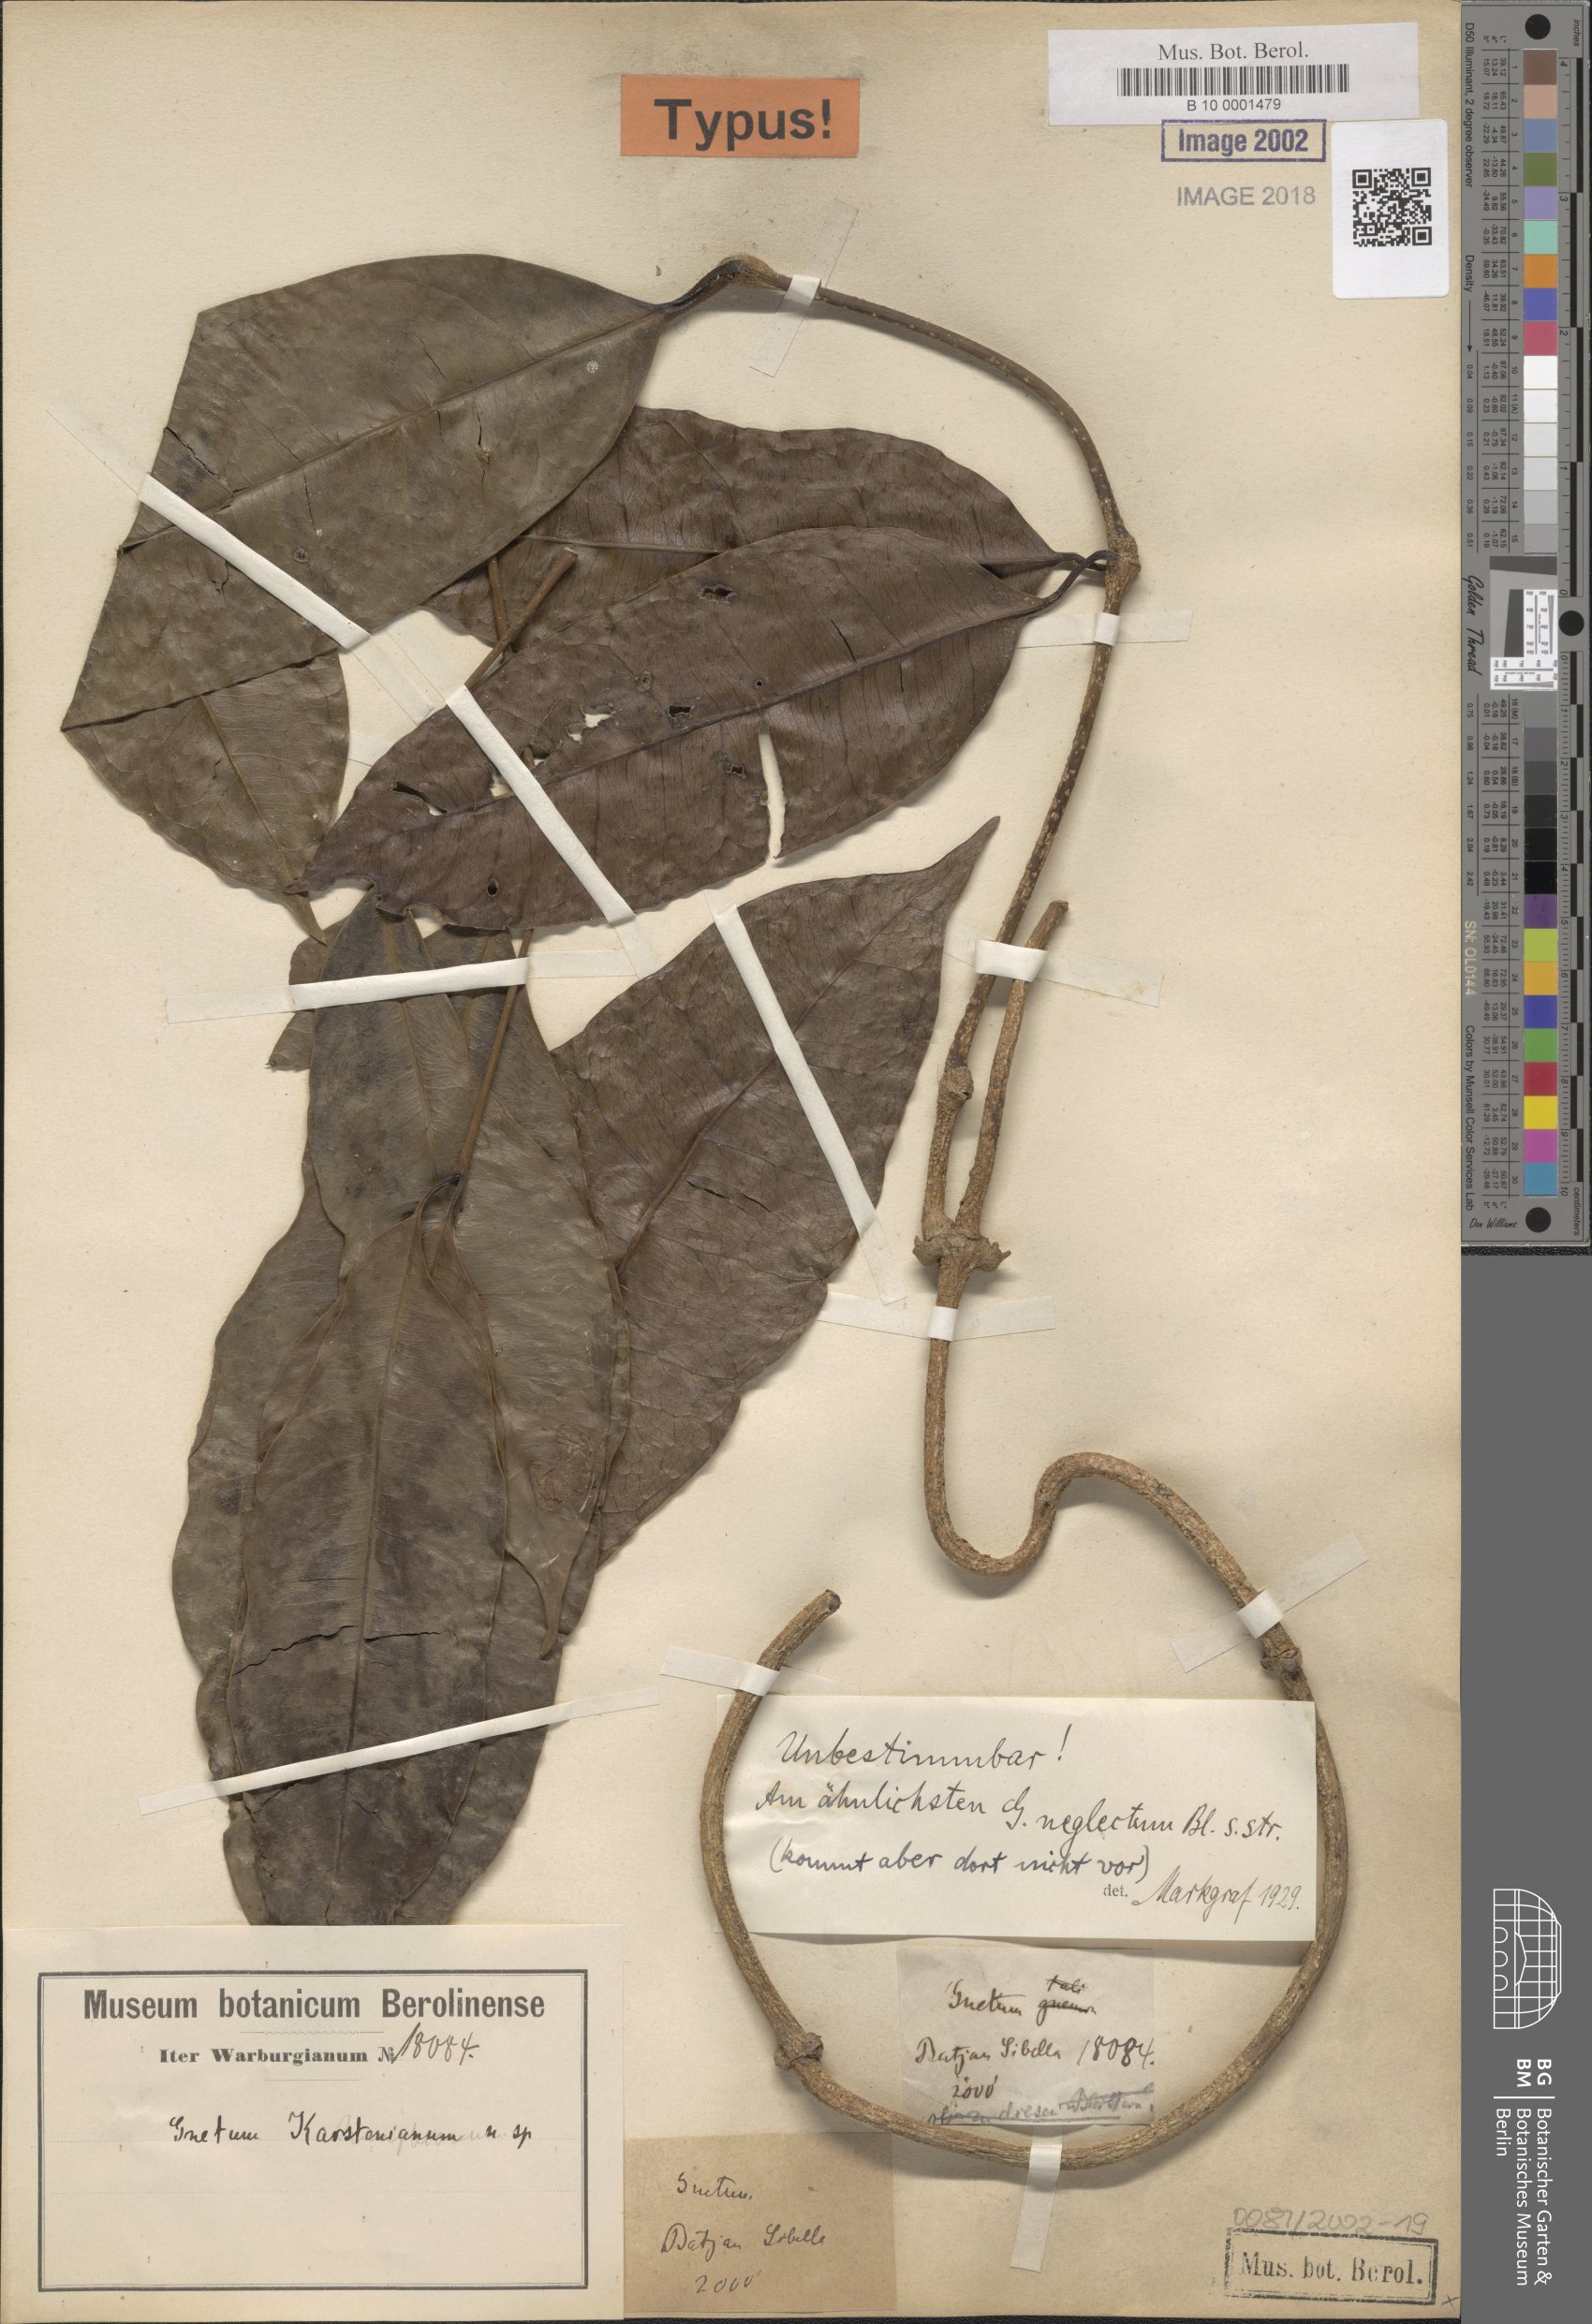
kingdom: Plantae
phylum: Tracheophyta
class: Gnetopsida
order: Gnetales
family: Gnetaceae
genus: Gnetum
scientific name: Gnetum karstenianum
